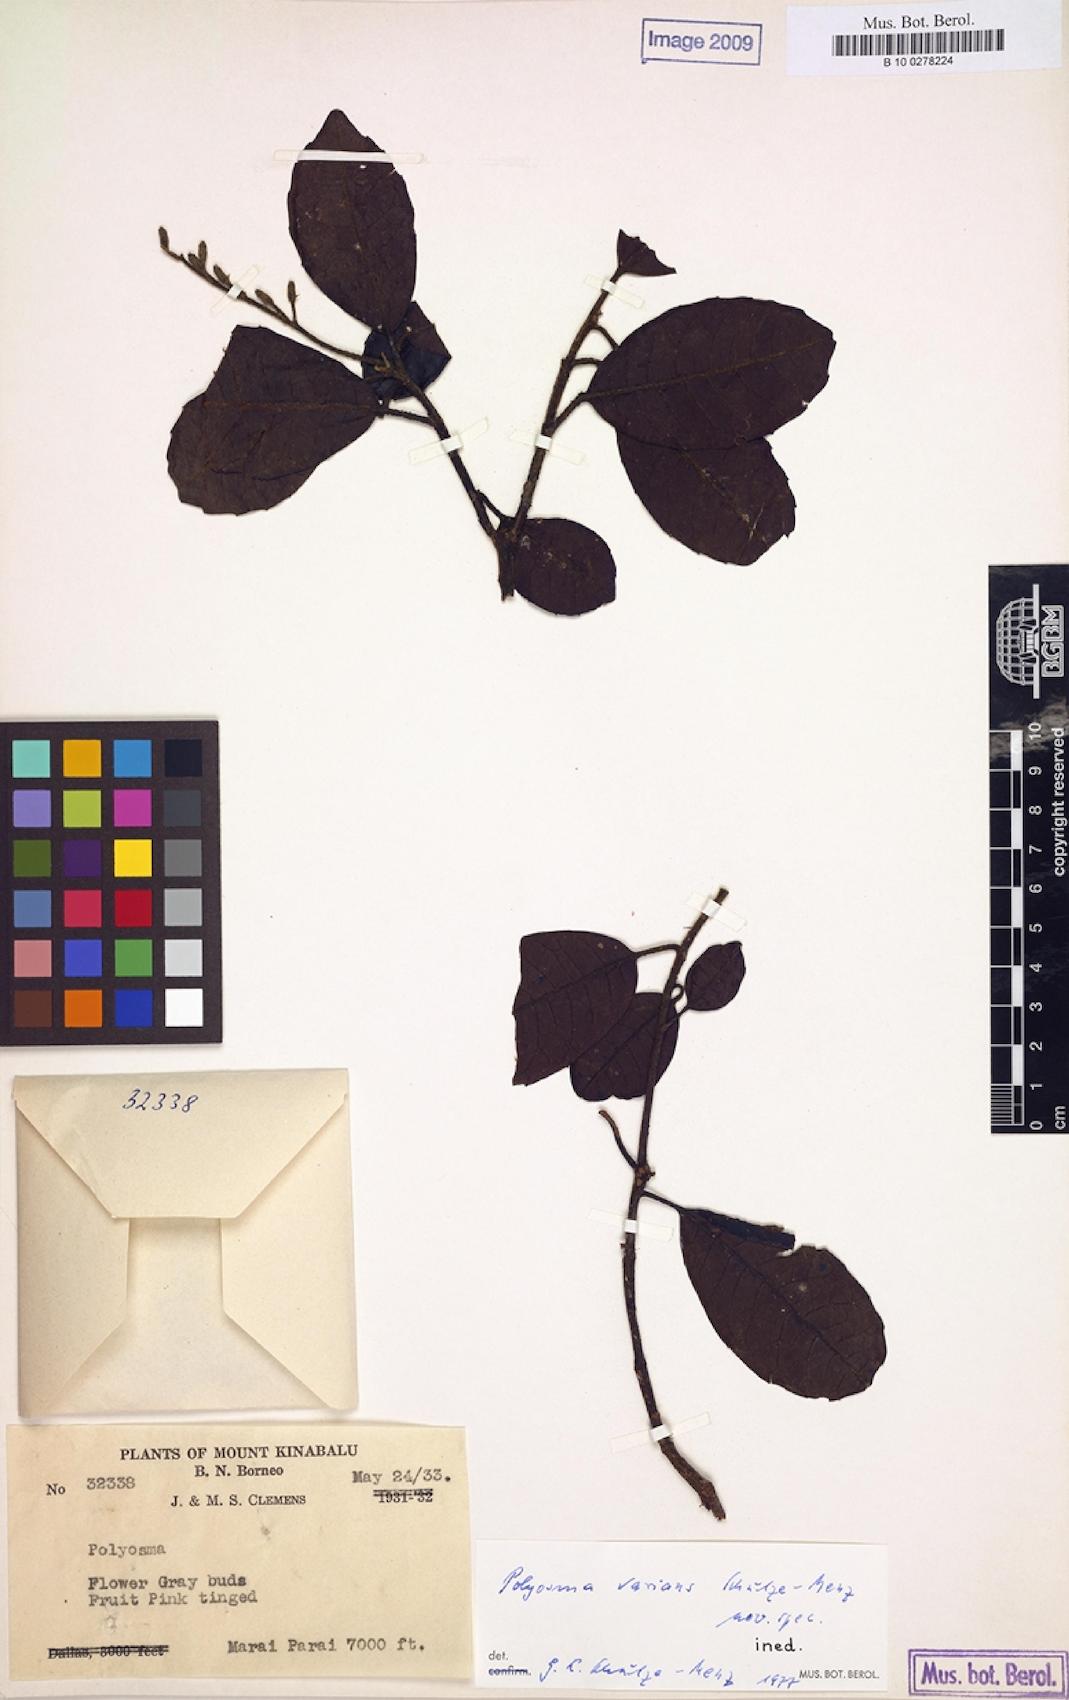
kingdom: Plantae
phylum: Tracheophyta
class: Magnoliopsida
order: Escalloniales
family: Escalloniaceae
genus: Polyosma
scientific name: Polyosma
